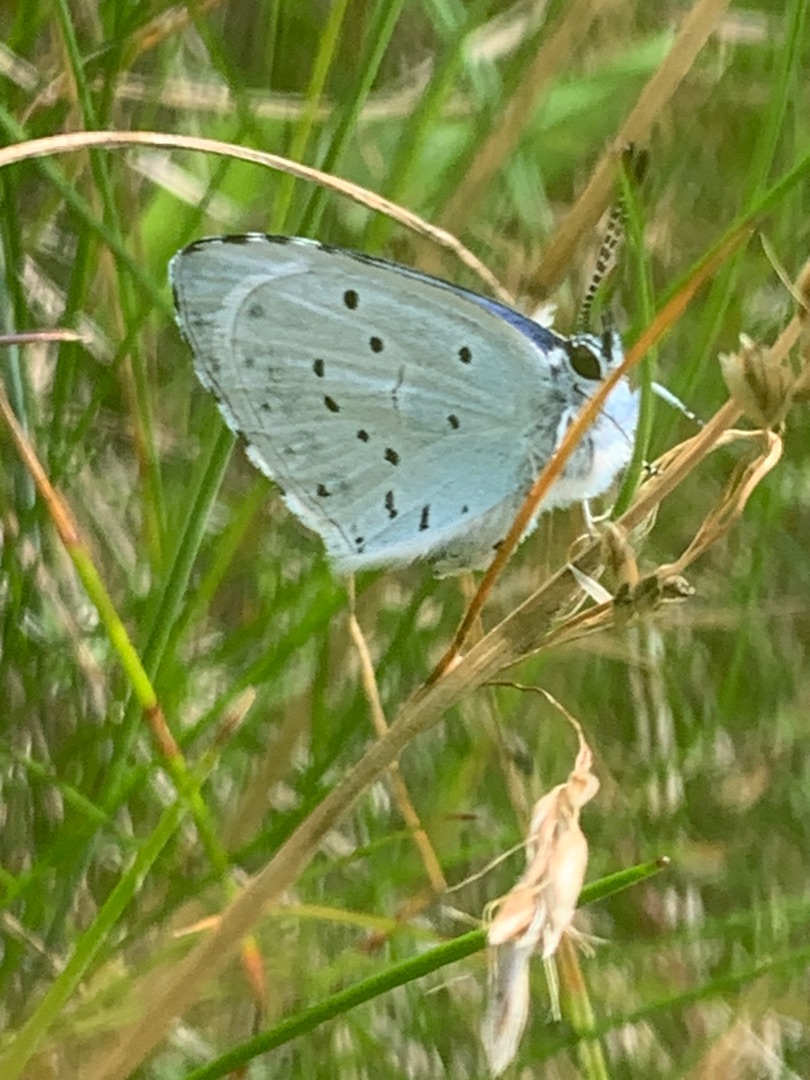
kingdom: Animalia
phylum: Arthropoda
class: Insecta
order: Lepidoptera
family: Lycaenidae
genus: Celastrina
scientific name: Celastrina argiolus
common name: Skovblåfugl
